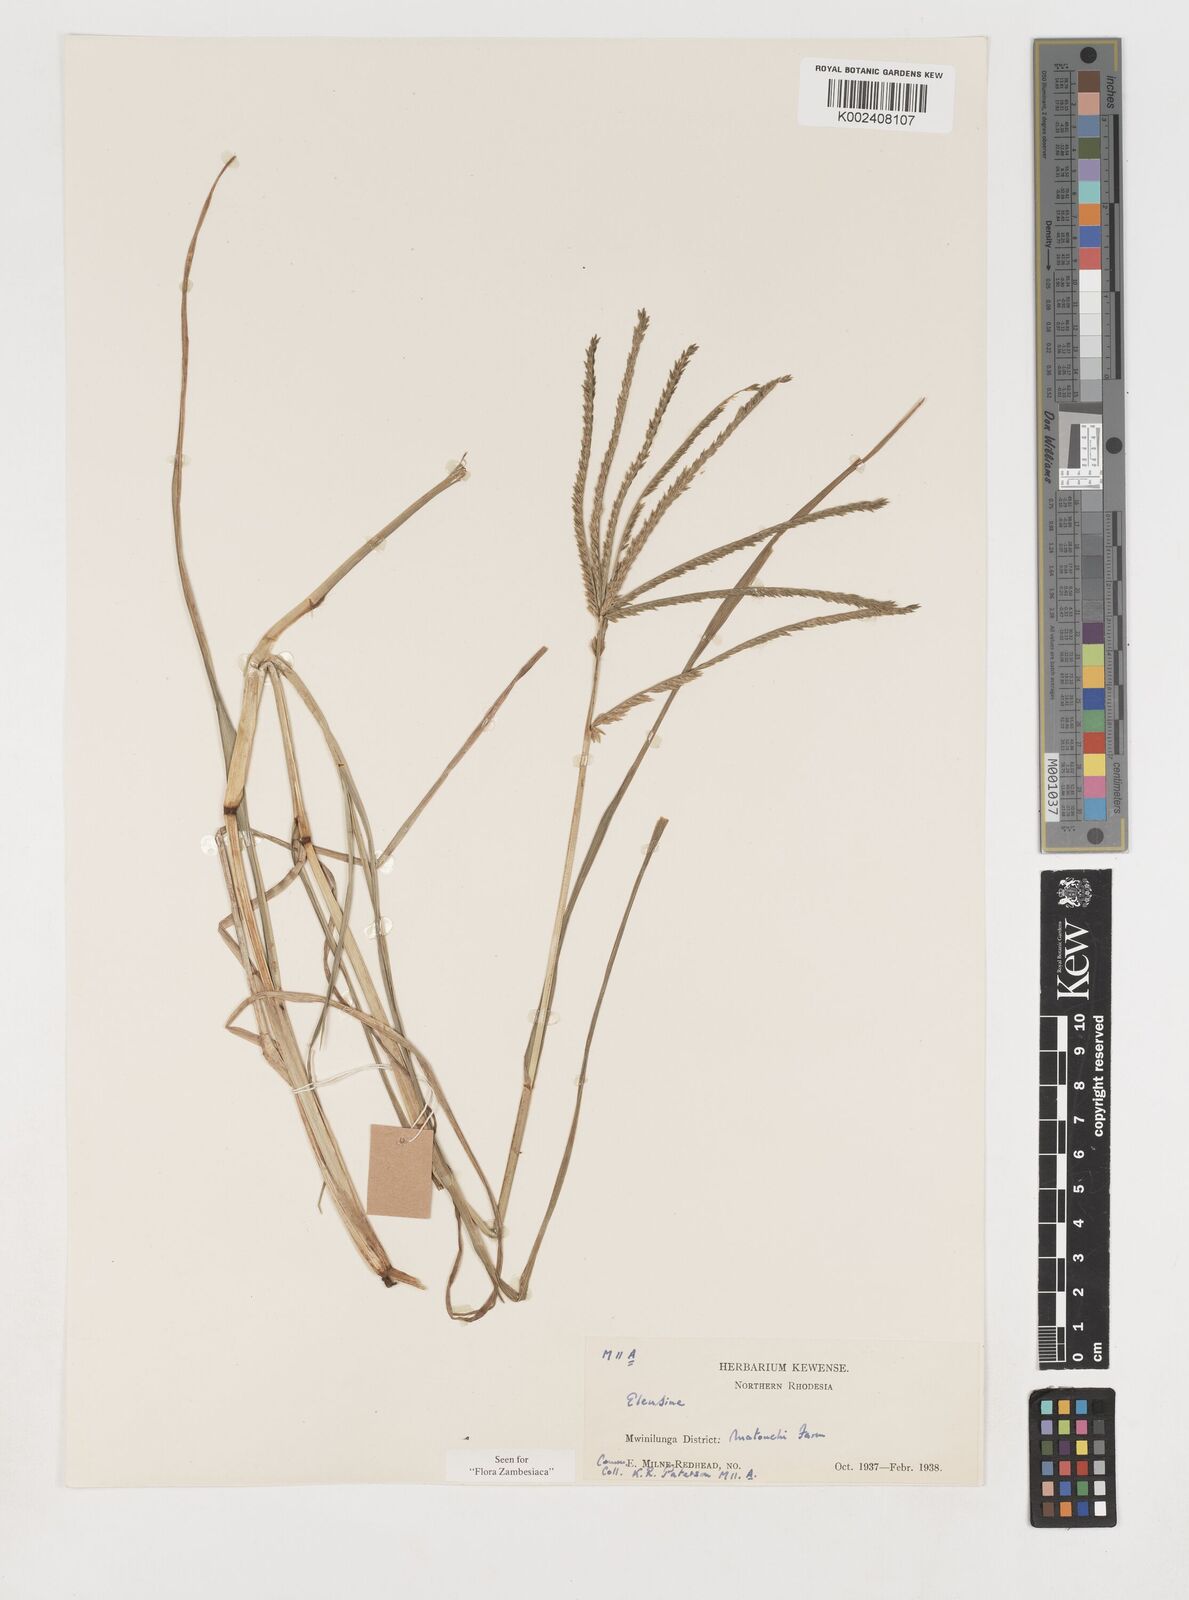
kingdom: Plantae
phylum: Tracheophyta
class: Liliopsida
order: Poales
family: Poaceae
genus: Eleusine
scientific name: Eleusine africana
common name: Wild african finger millet
